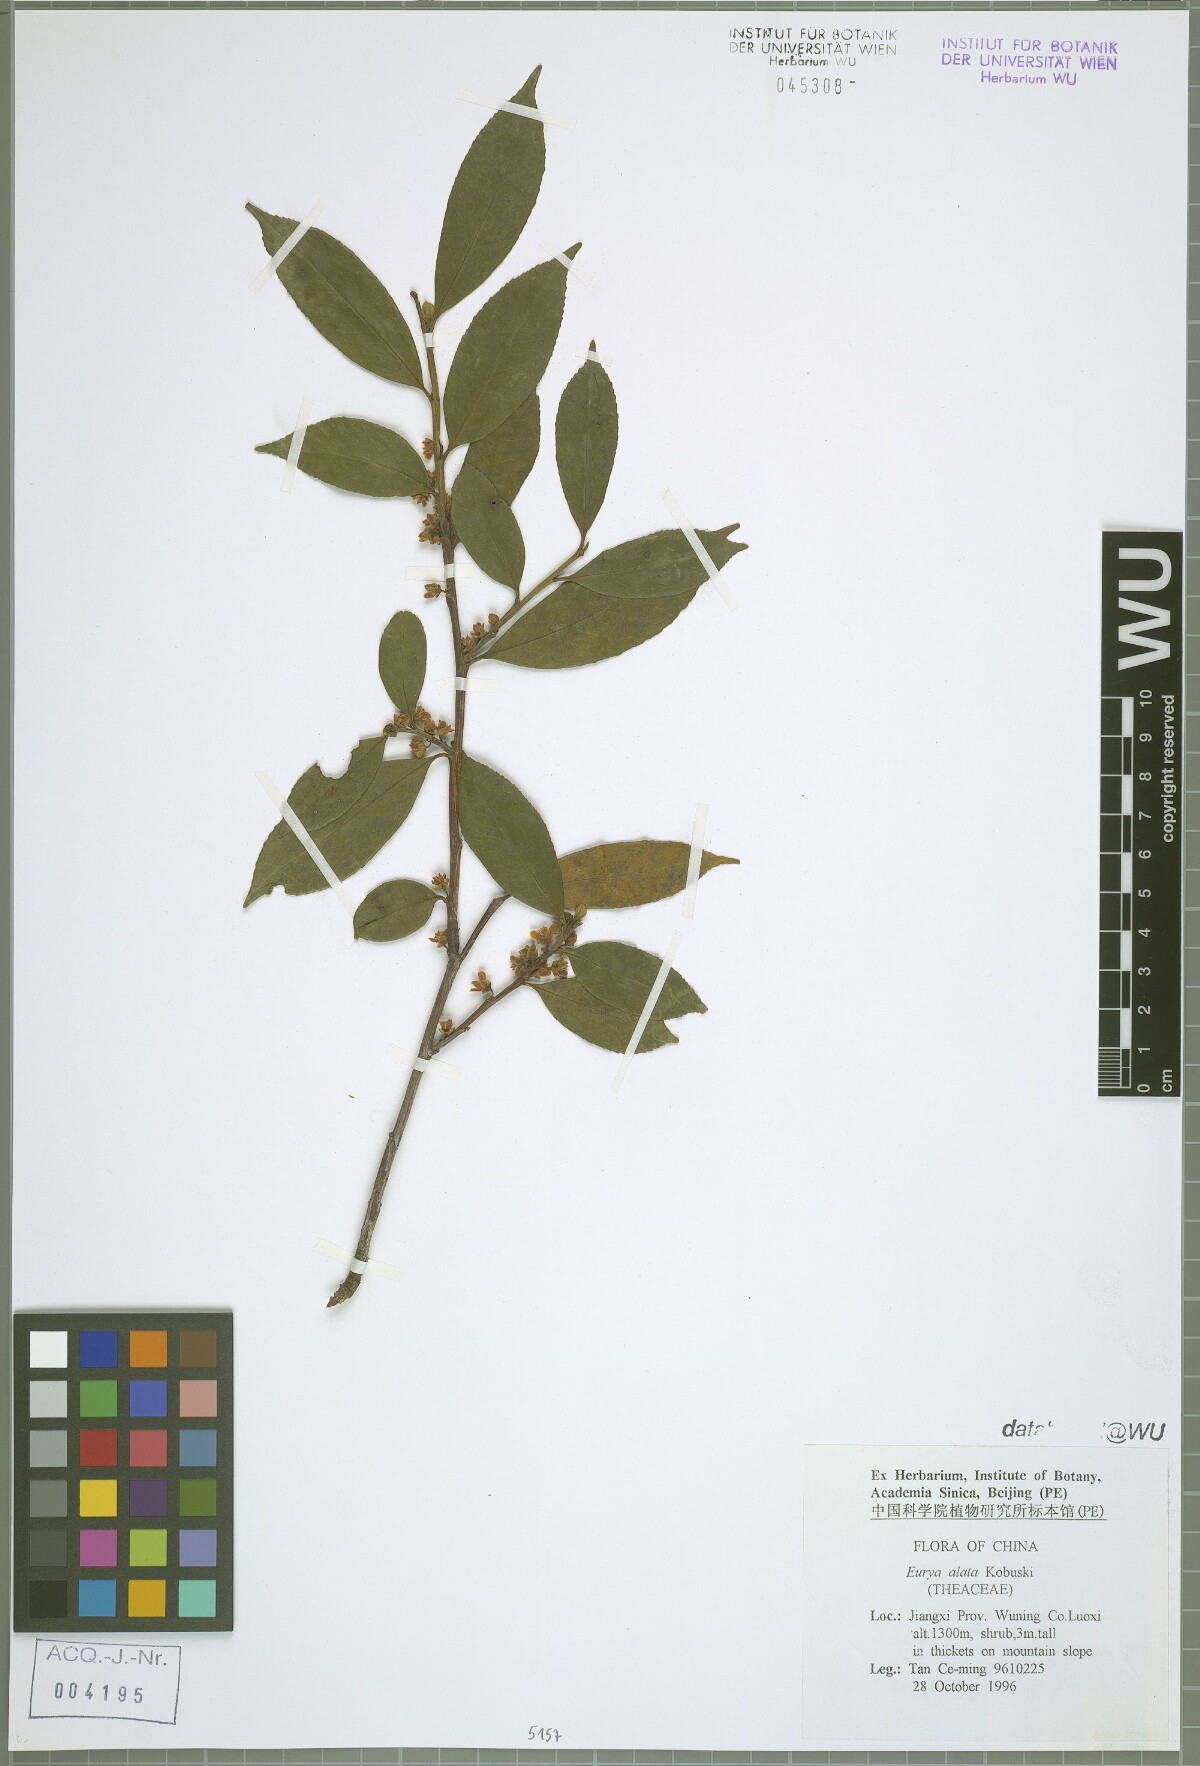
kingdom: Plantae
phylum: Tracheophyta
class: Magnoliopsida
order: Ericales
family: Pentaphylacaceae
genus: Eurya
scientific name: Eurya alata
